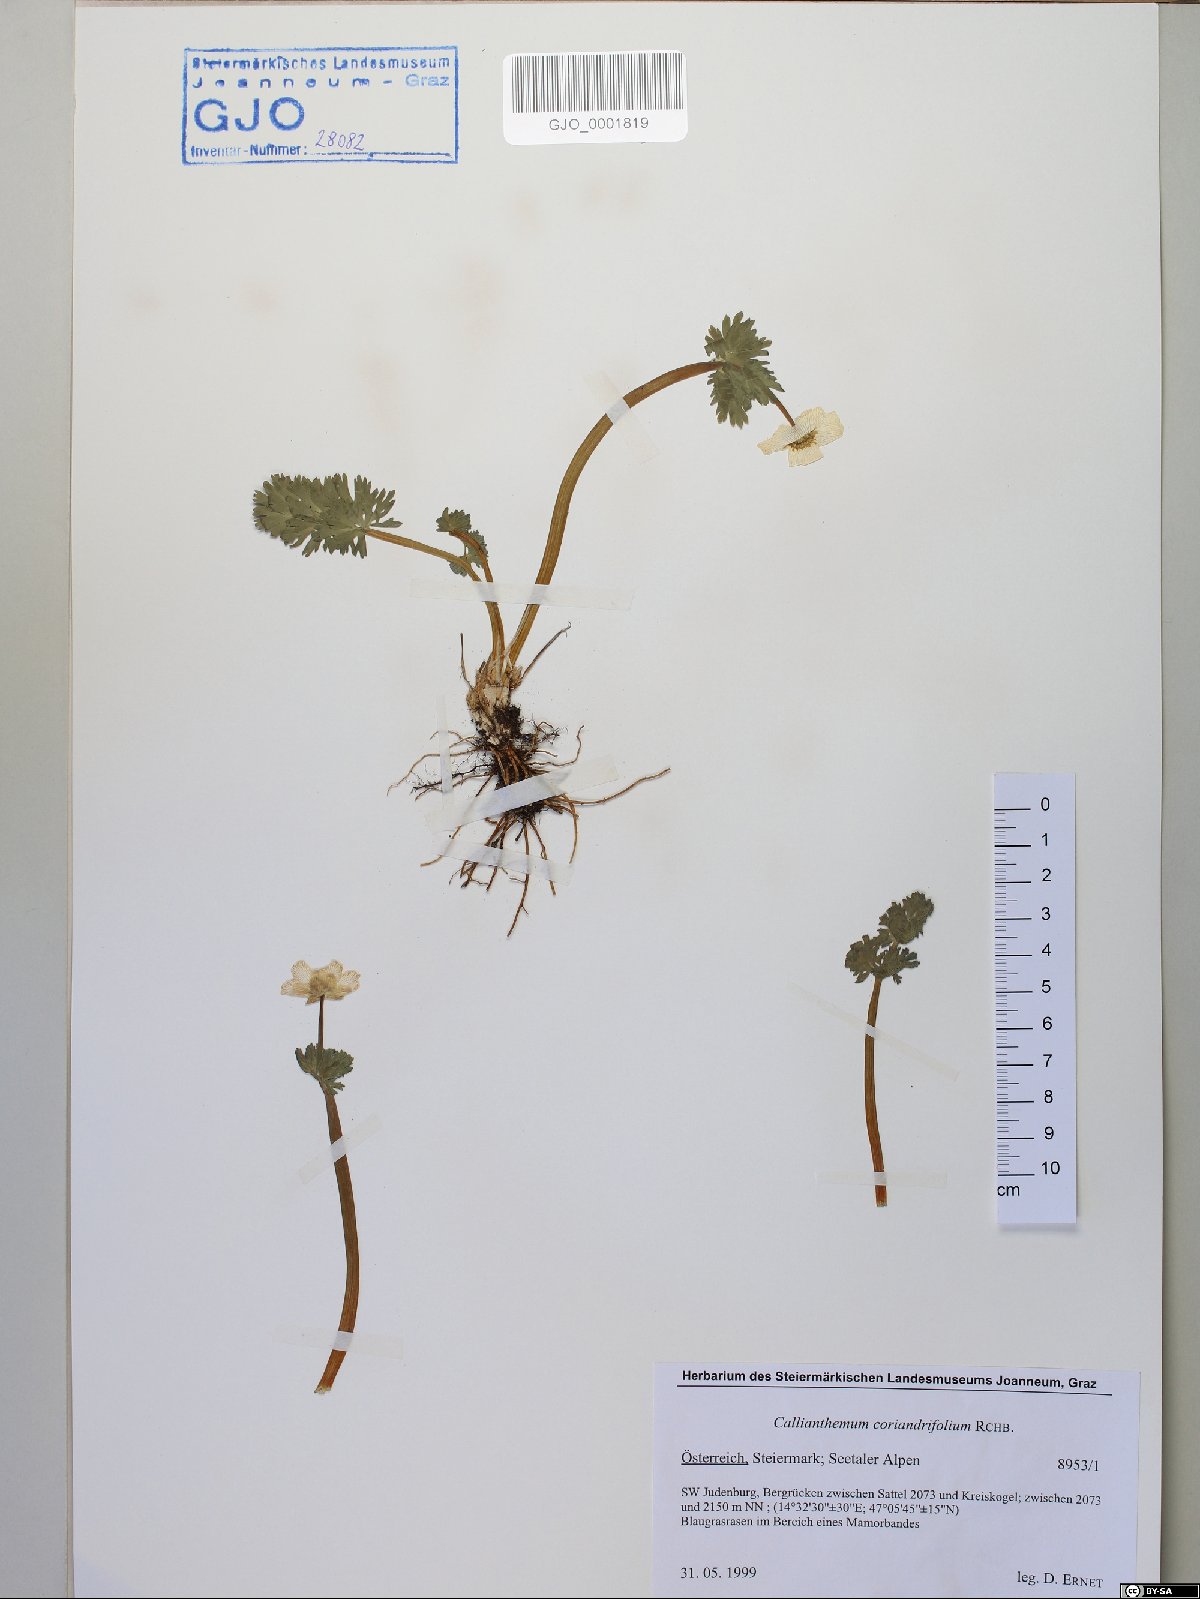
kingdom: Plantae
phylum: Tracheophyta
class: Magnoliopsida
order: Ranunculales
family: Ranunculaceae
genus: Callianthemum
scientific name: Callianthemum coriandrifolium
